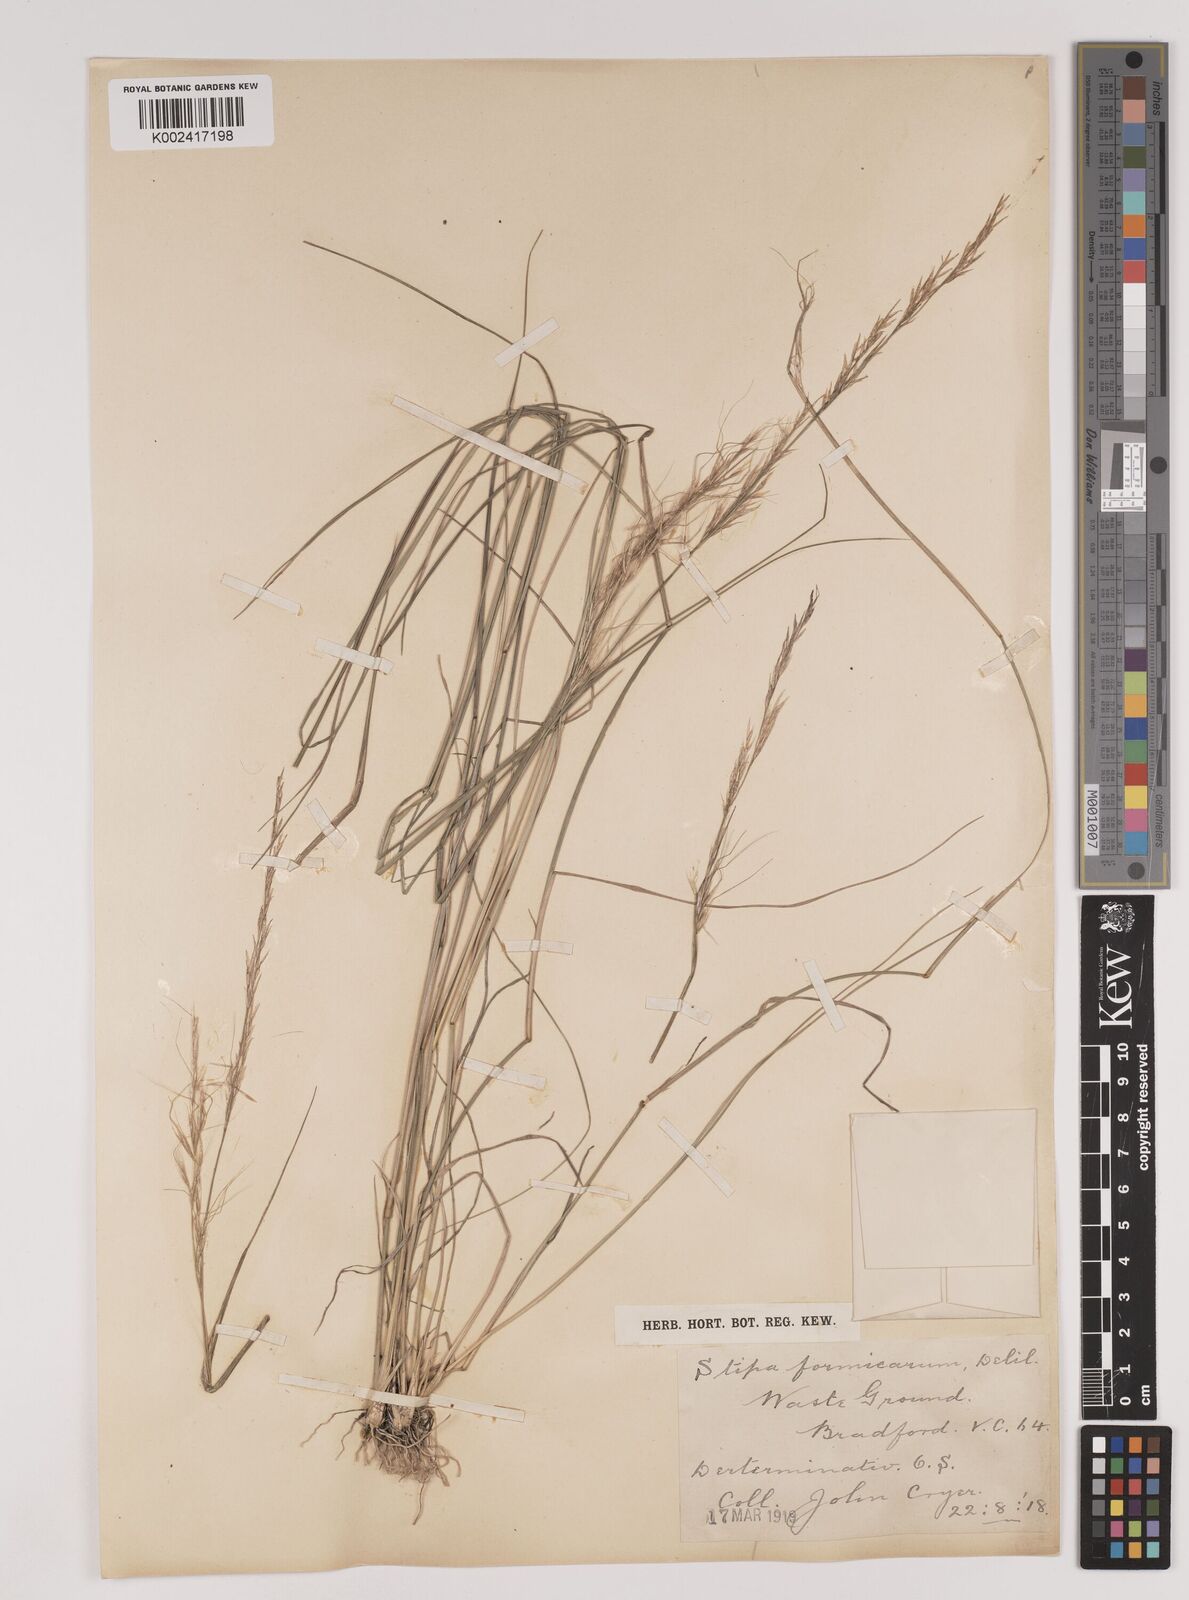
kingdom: Plantae
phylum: Tracheophyta
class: Liliopsida
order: Poales
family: Poaceae
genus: Nassella
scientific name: Nassella formicarum
